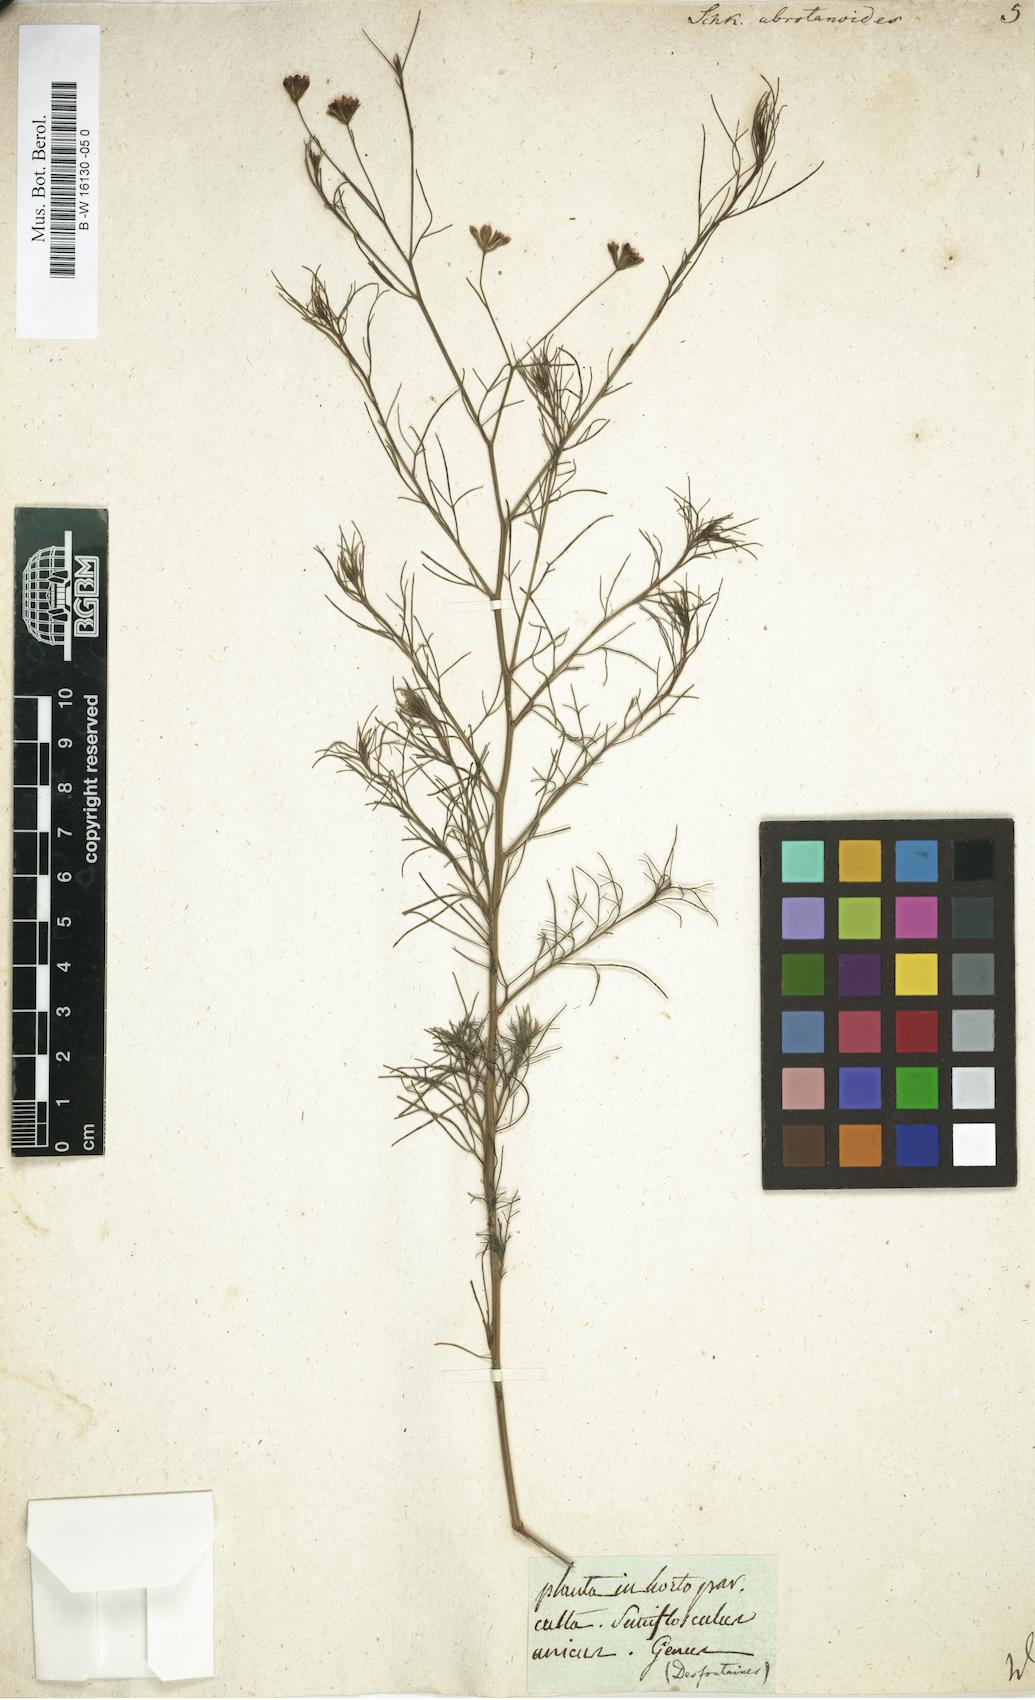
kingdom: Plantae
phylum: Tracheophyta
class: Magnoliopsida
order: Asterales
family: Asteraceae
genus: Schkuhria
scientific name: Schkuhria pinnata
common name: Dwarf marigold
